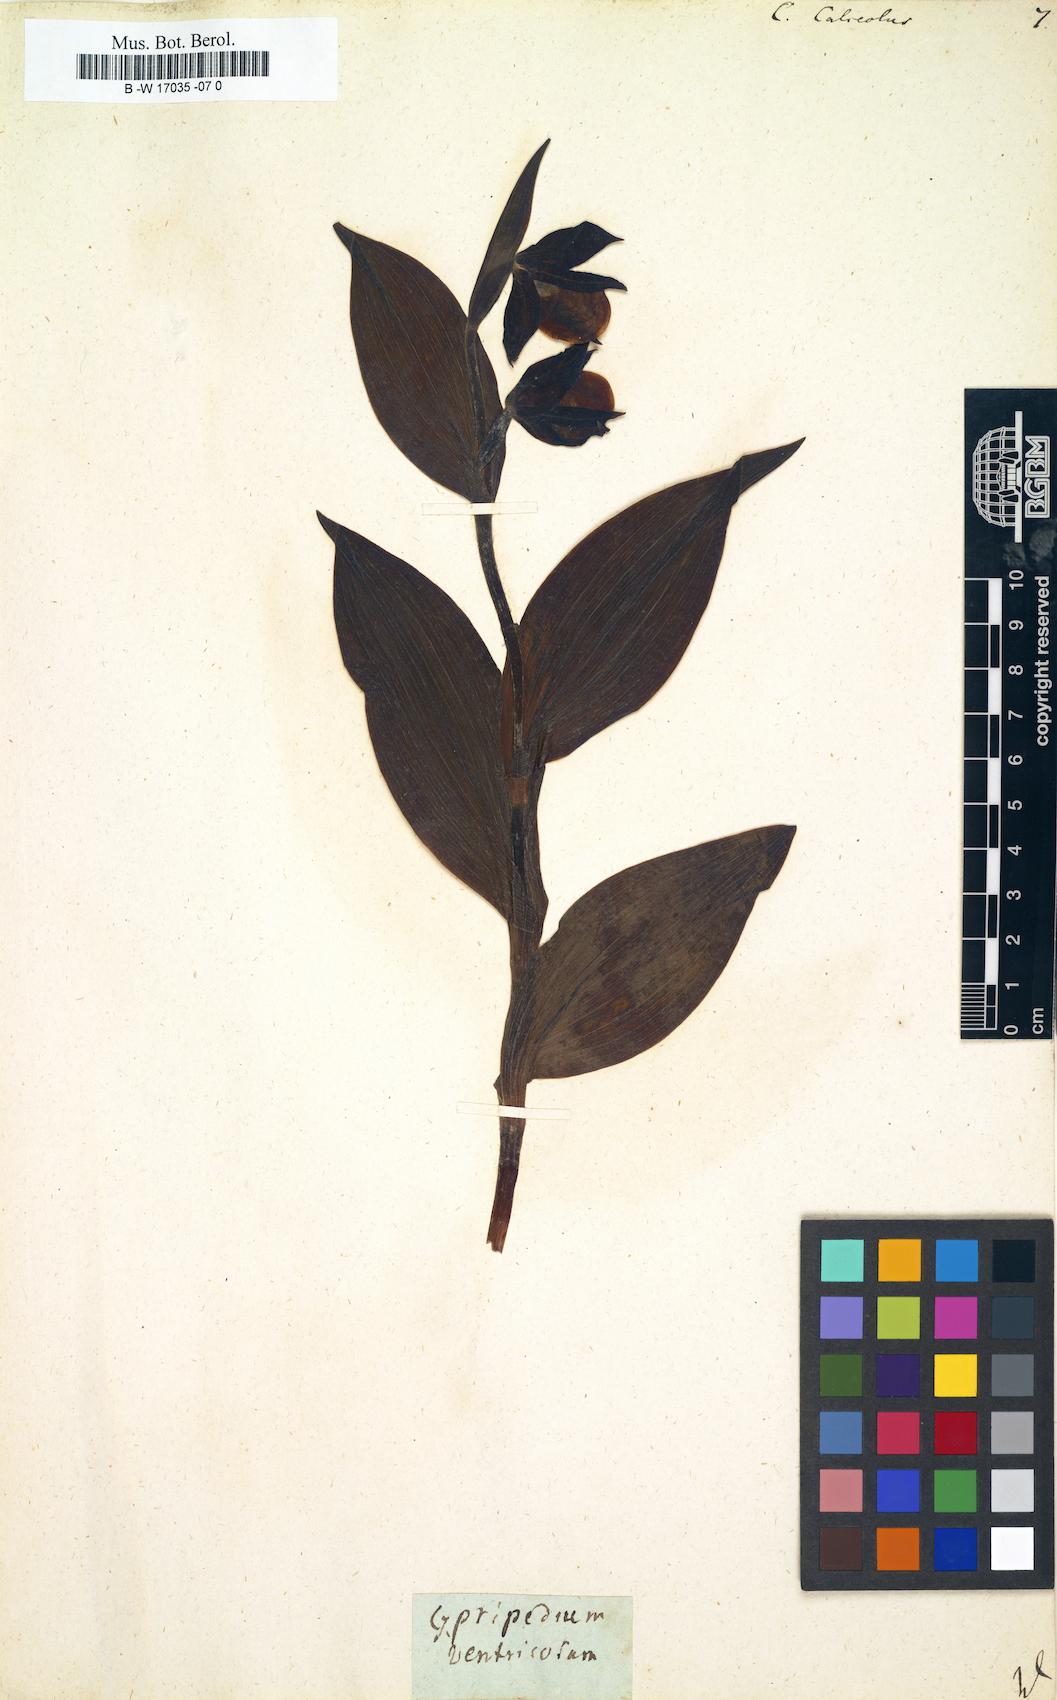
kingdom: Plantae
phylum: Tracheophyta
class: Liliopsida
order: Asparagales
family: Orchidaceae
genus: Cypripedium
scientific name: Cypripedium calceolus
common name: Lady's-slipper
